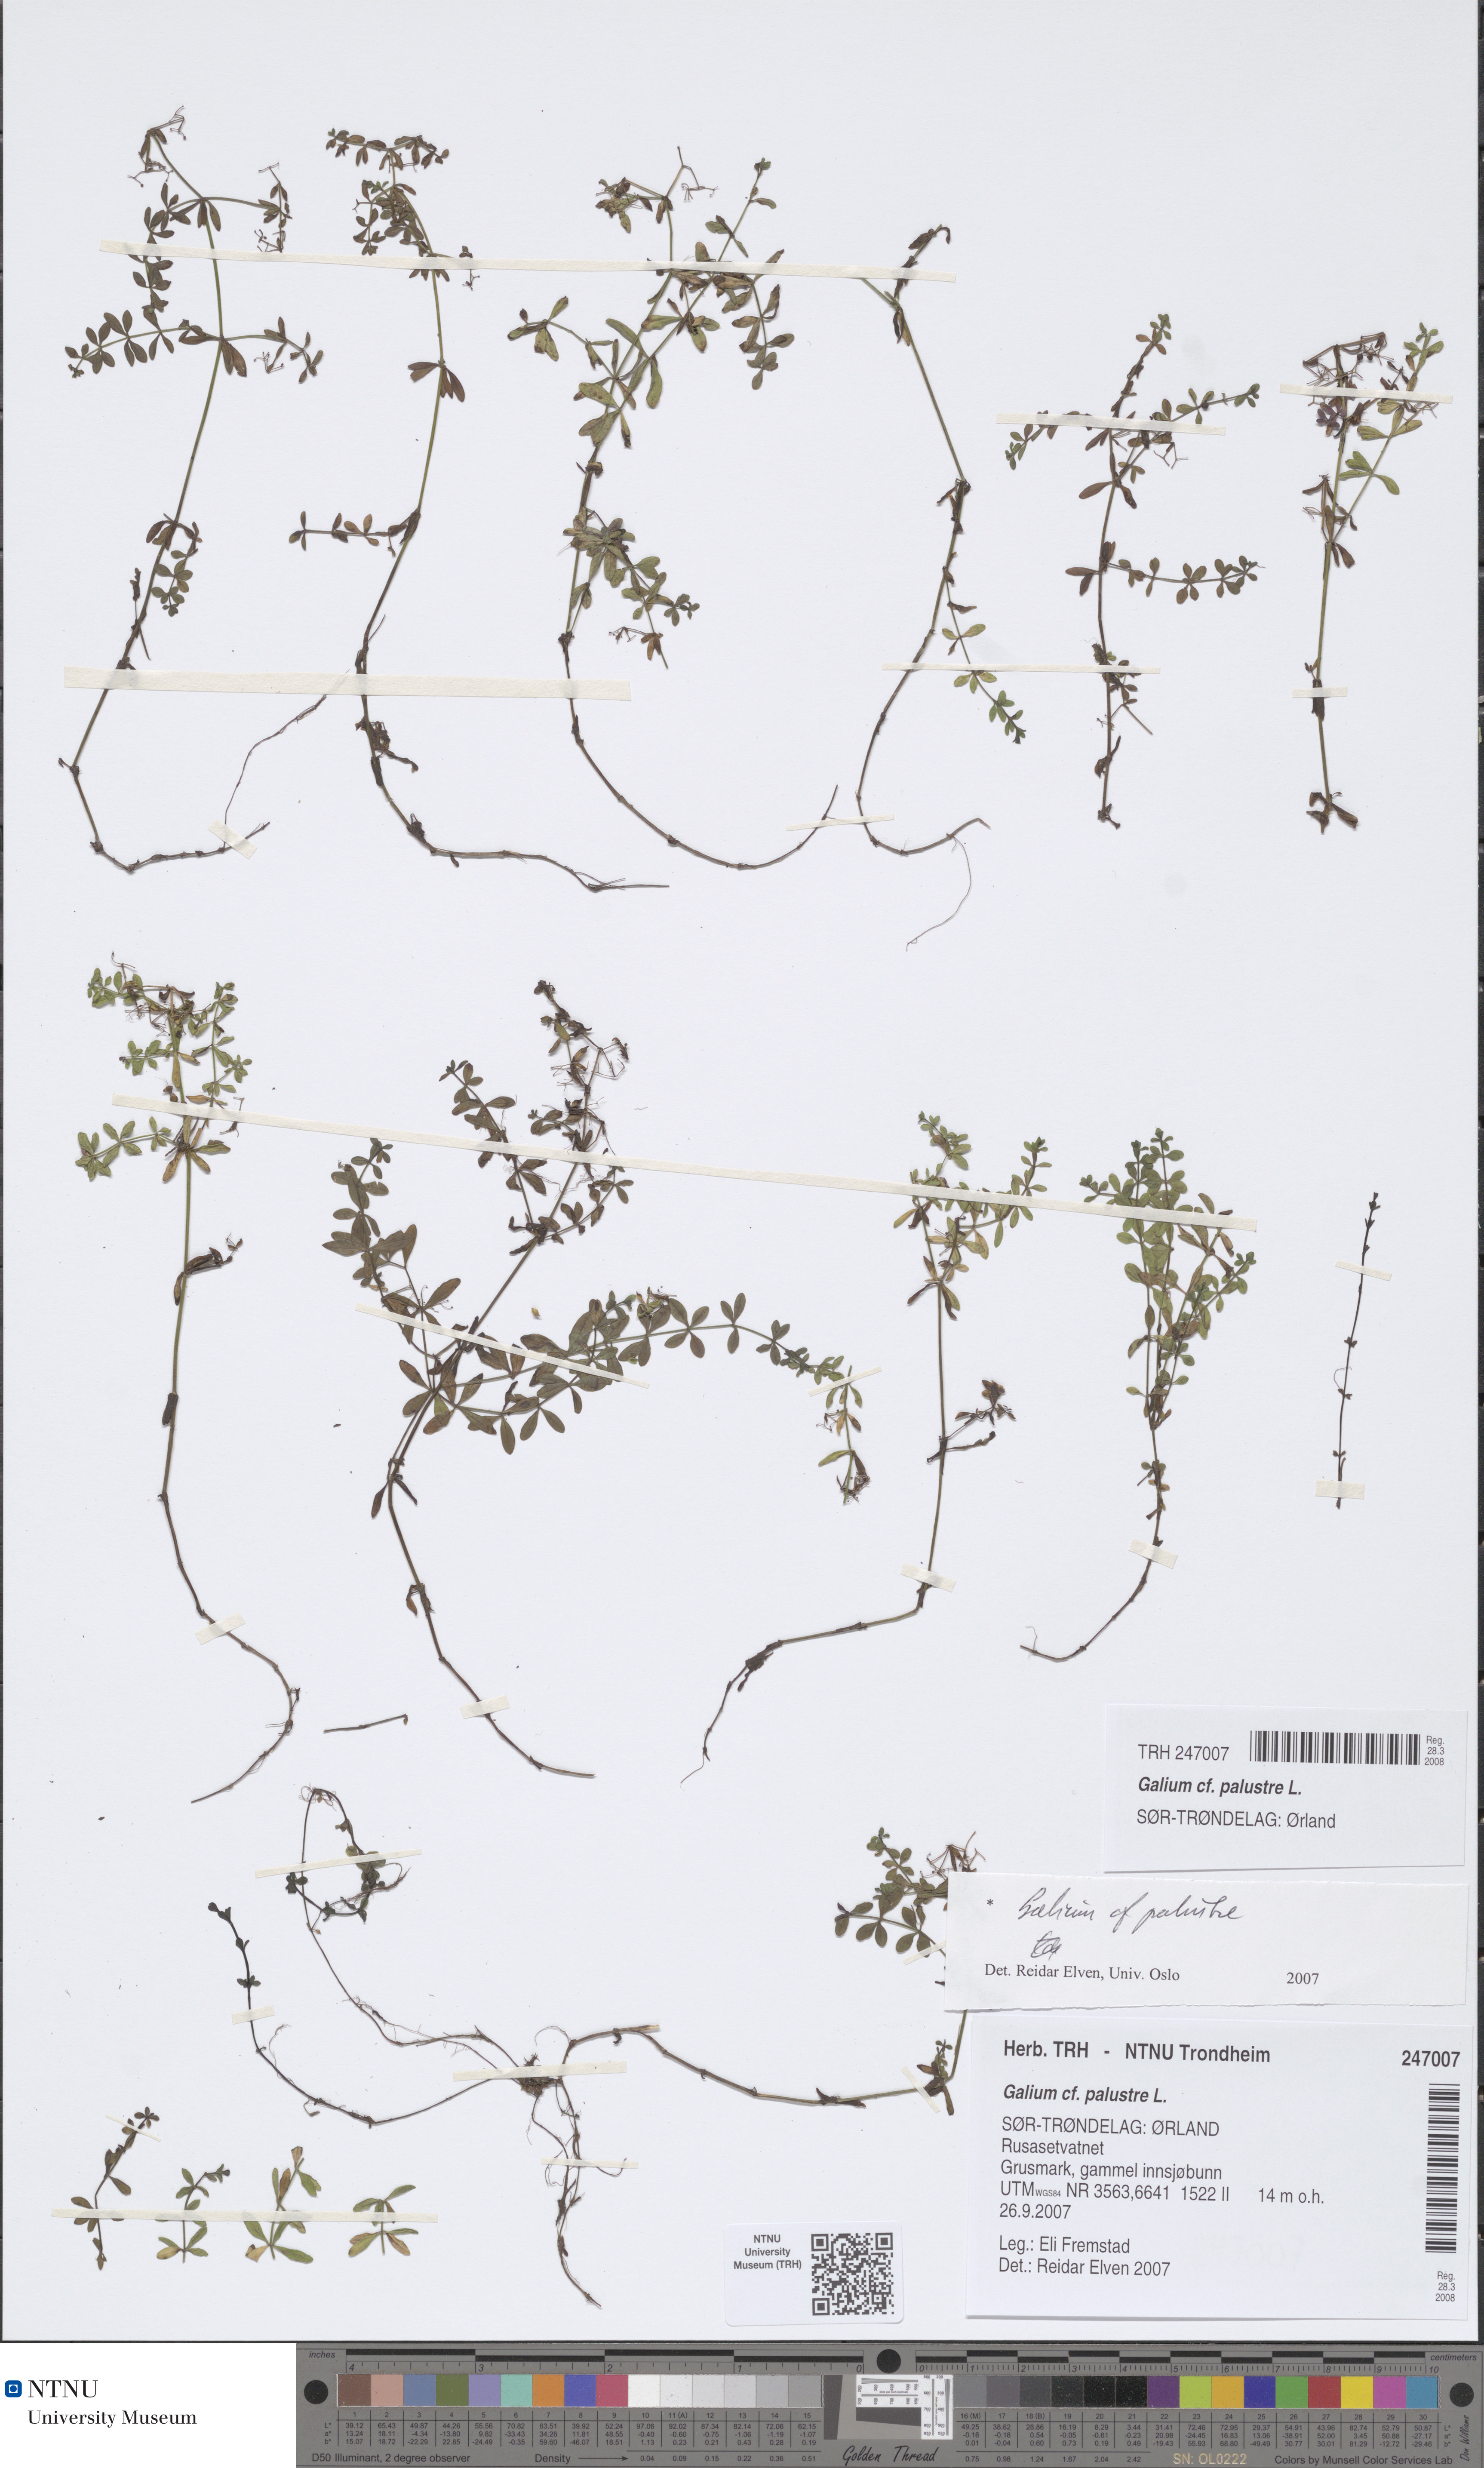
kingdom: Plantae
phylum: Tracheophyta
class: Magnoliopsida
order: Gentianales
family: Rubiaceae
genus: Galium
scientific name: Galium palustre
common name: Common marsh-bedstraw
